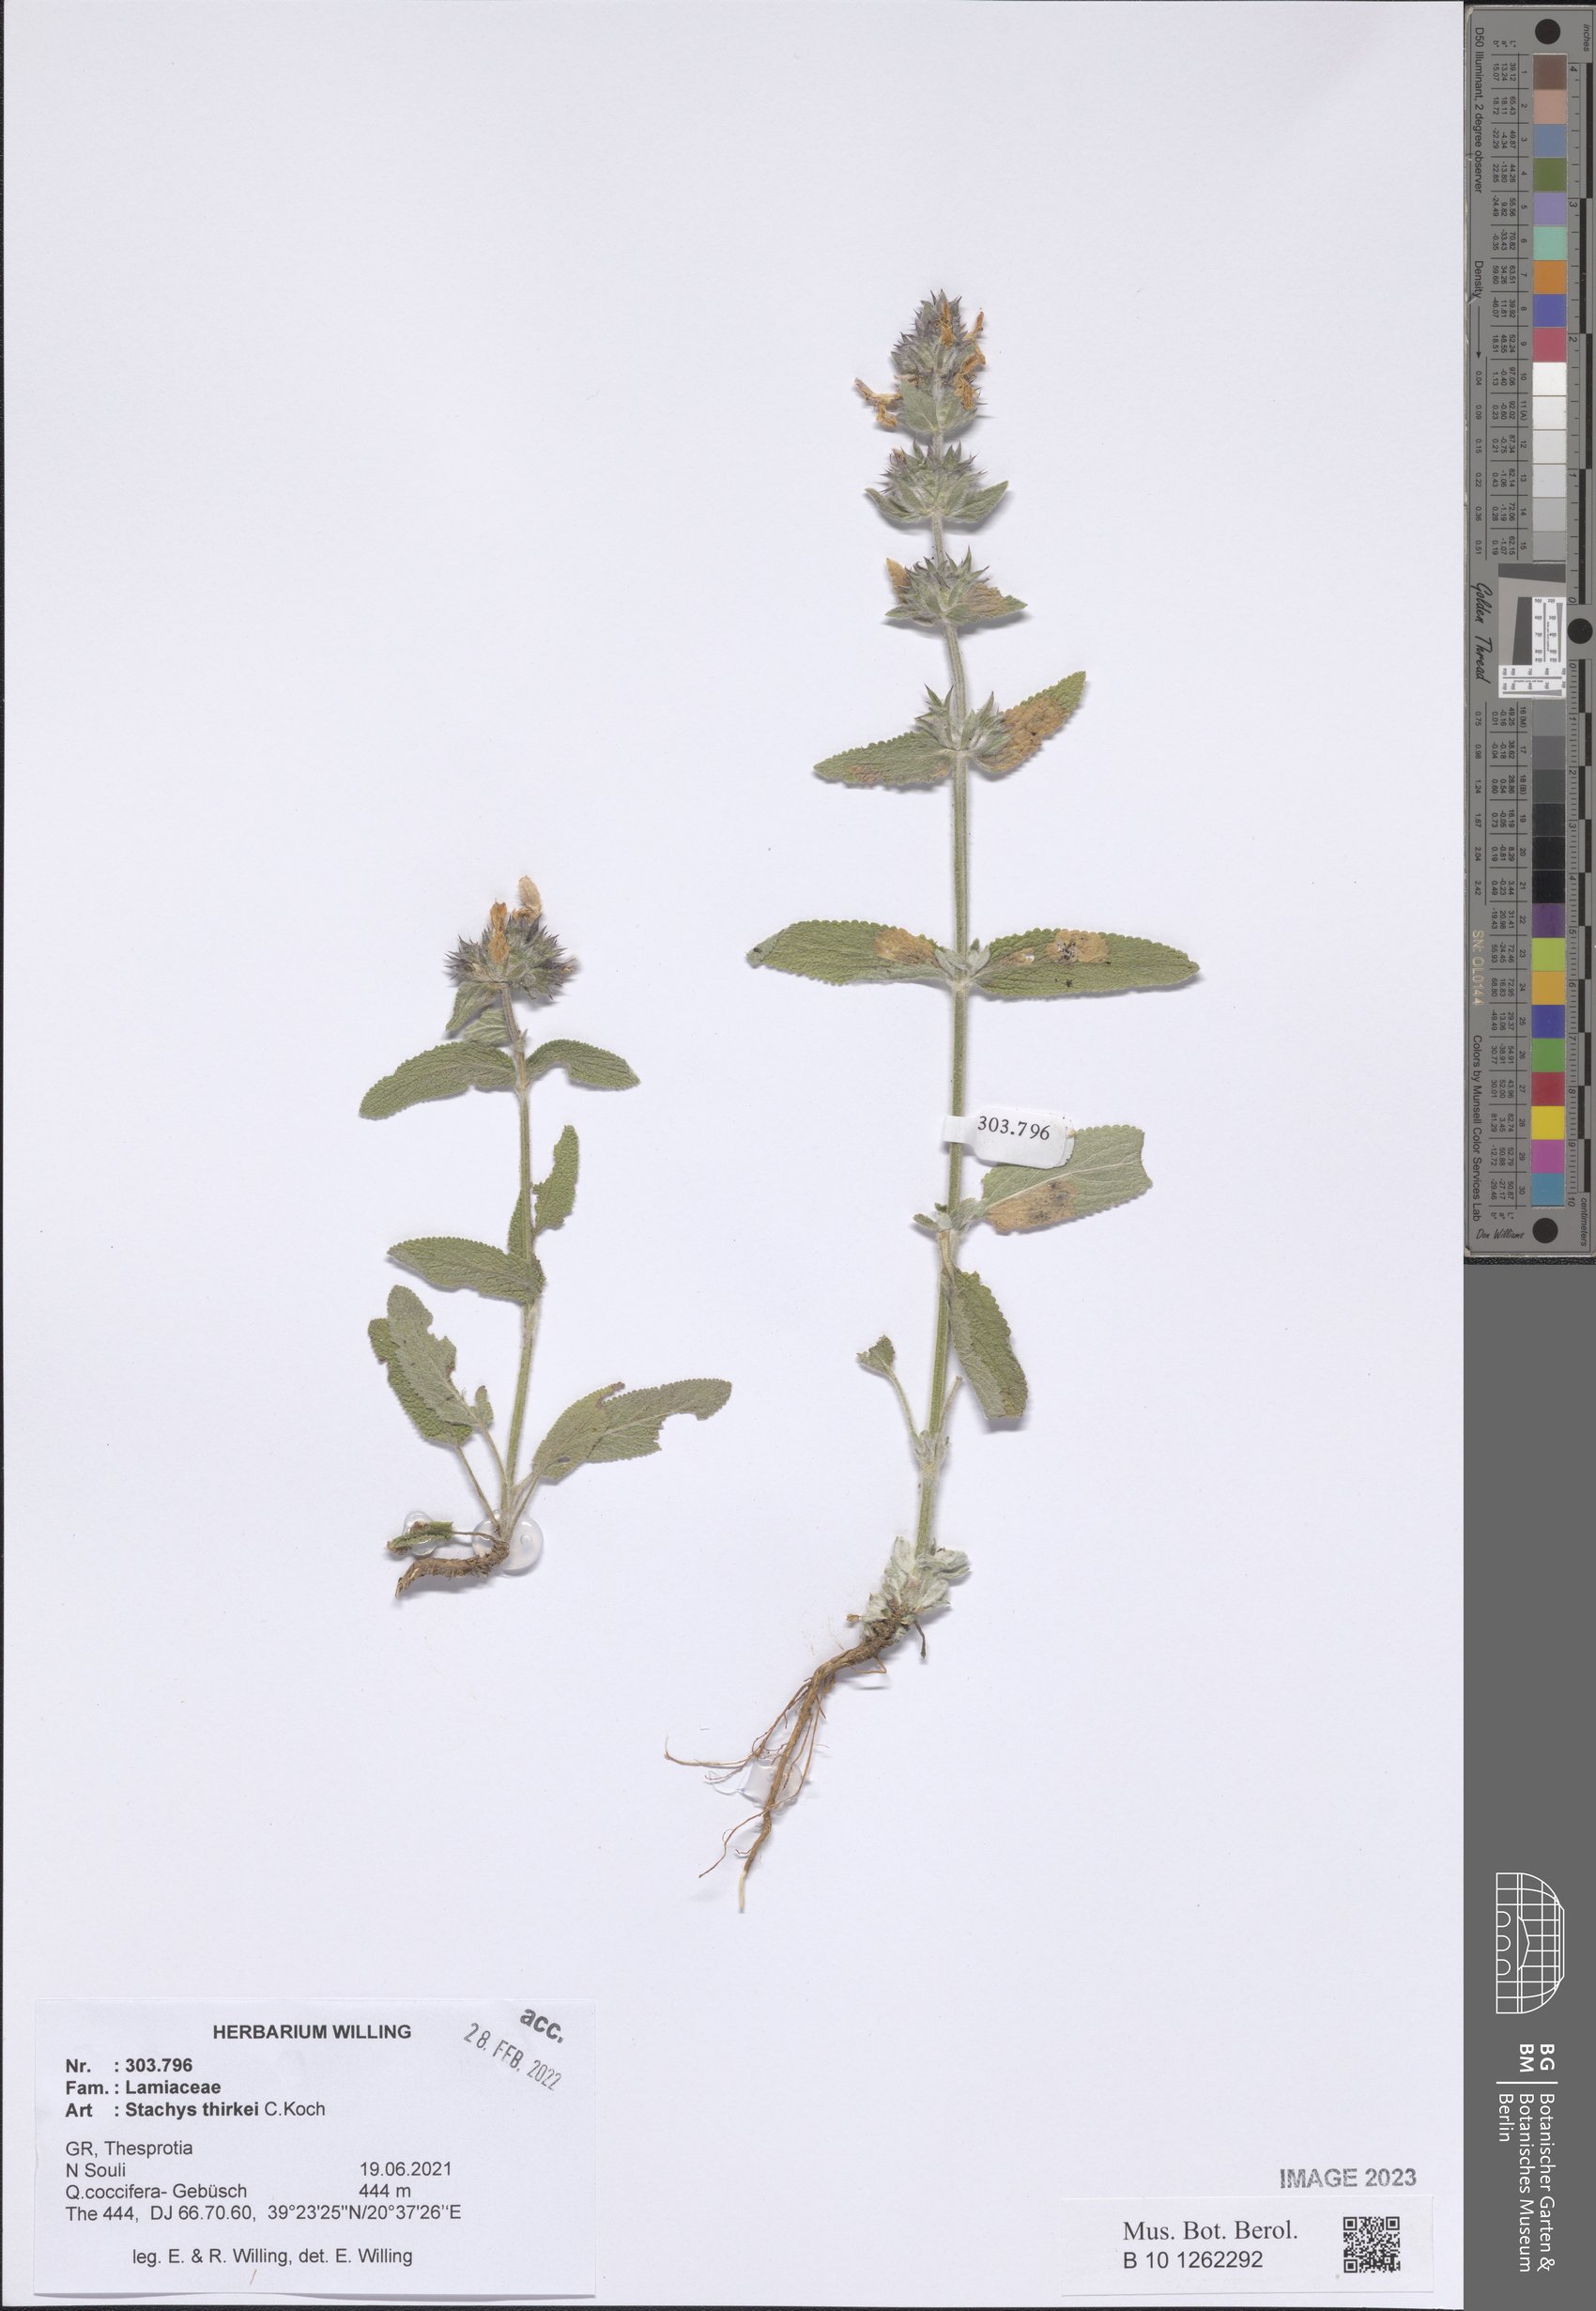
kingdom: Plantae
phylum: Tracheophyta
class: Magnoliopsida
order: Lamiales
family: Lamiaceae
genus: Stachys
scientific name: Stachys thirkei
